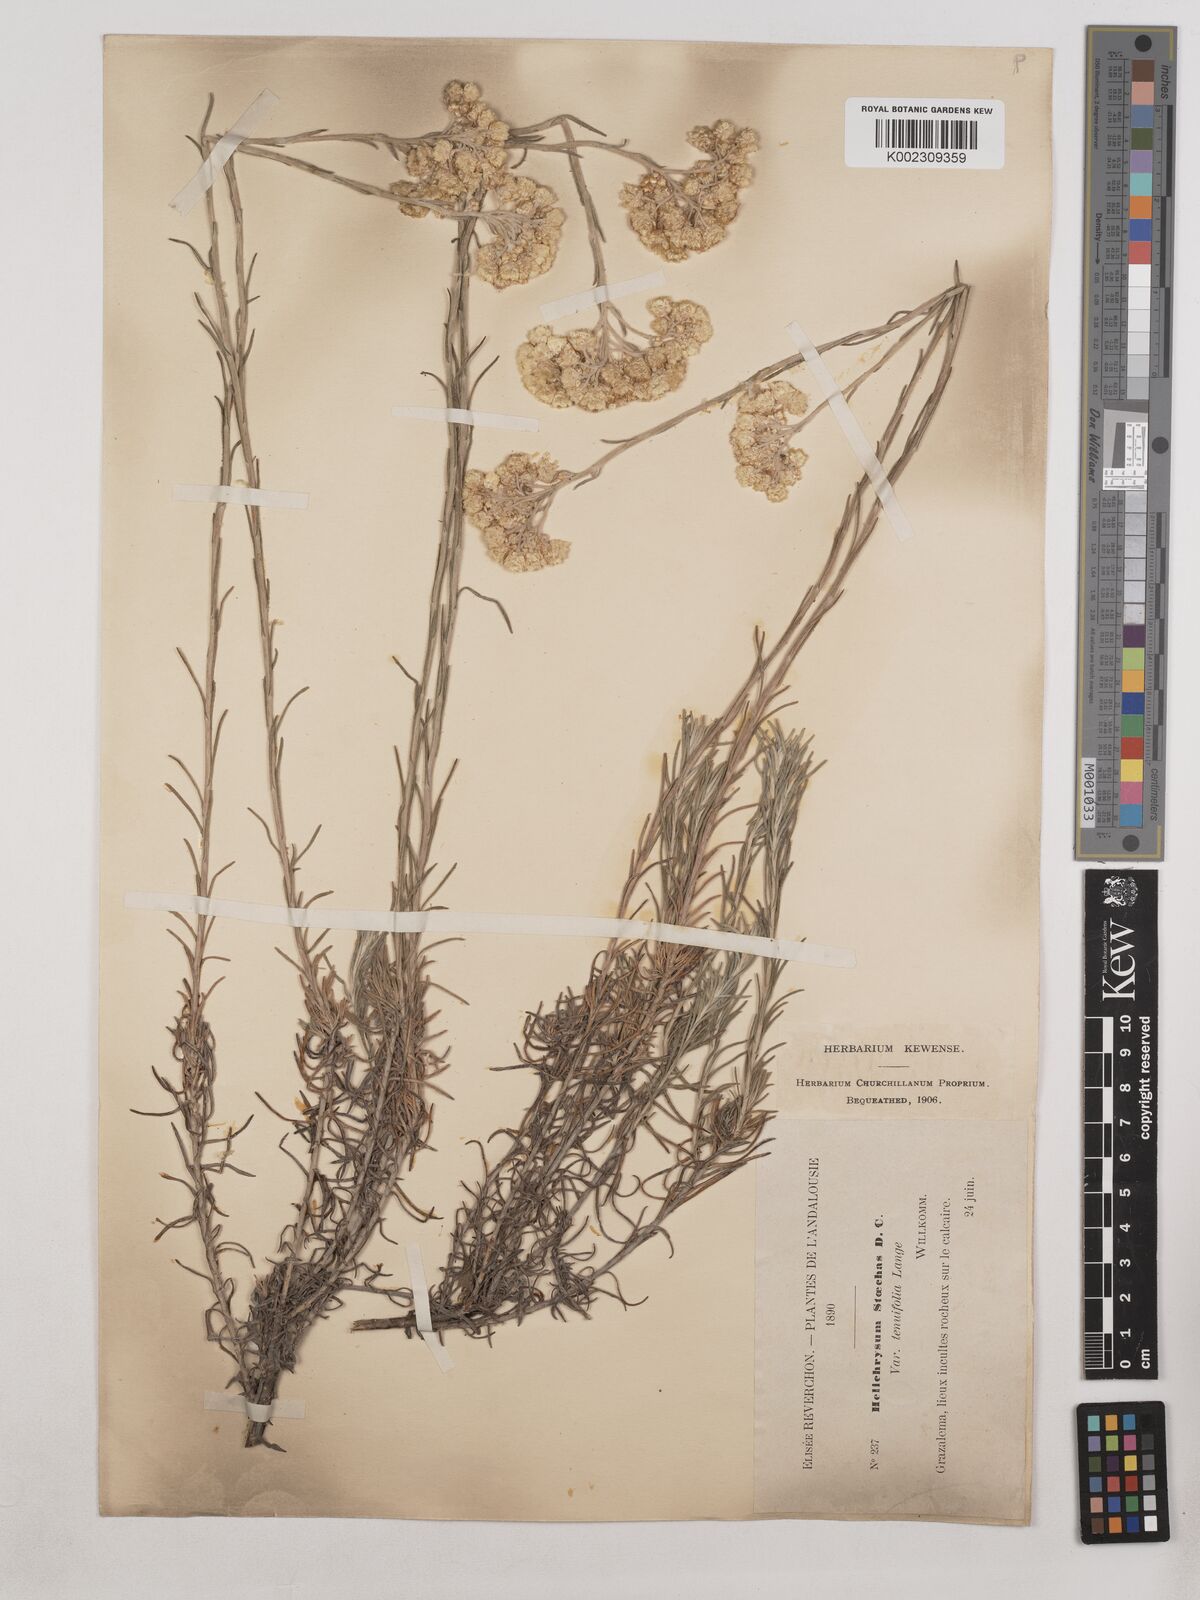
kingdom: Plantae
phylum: Tracheophyta
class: Magnoliopsida
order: Asterales
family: Asteraceae
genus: Helichrysum
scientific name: Helichrysum
